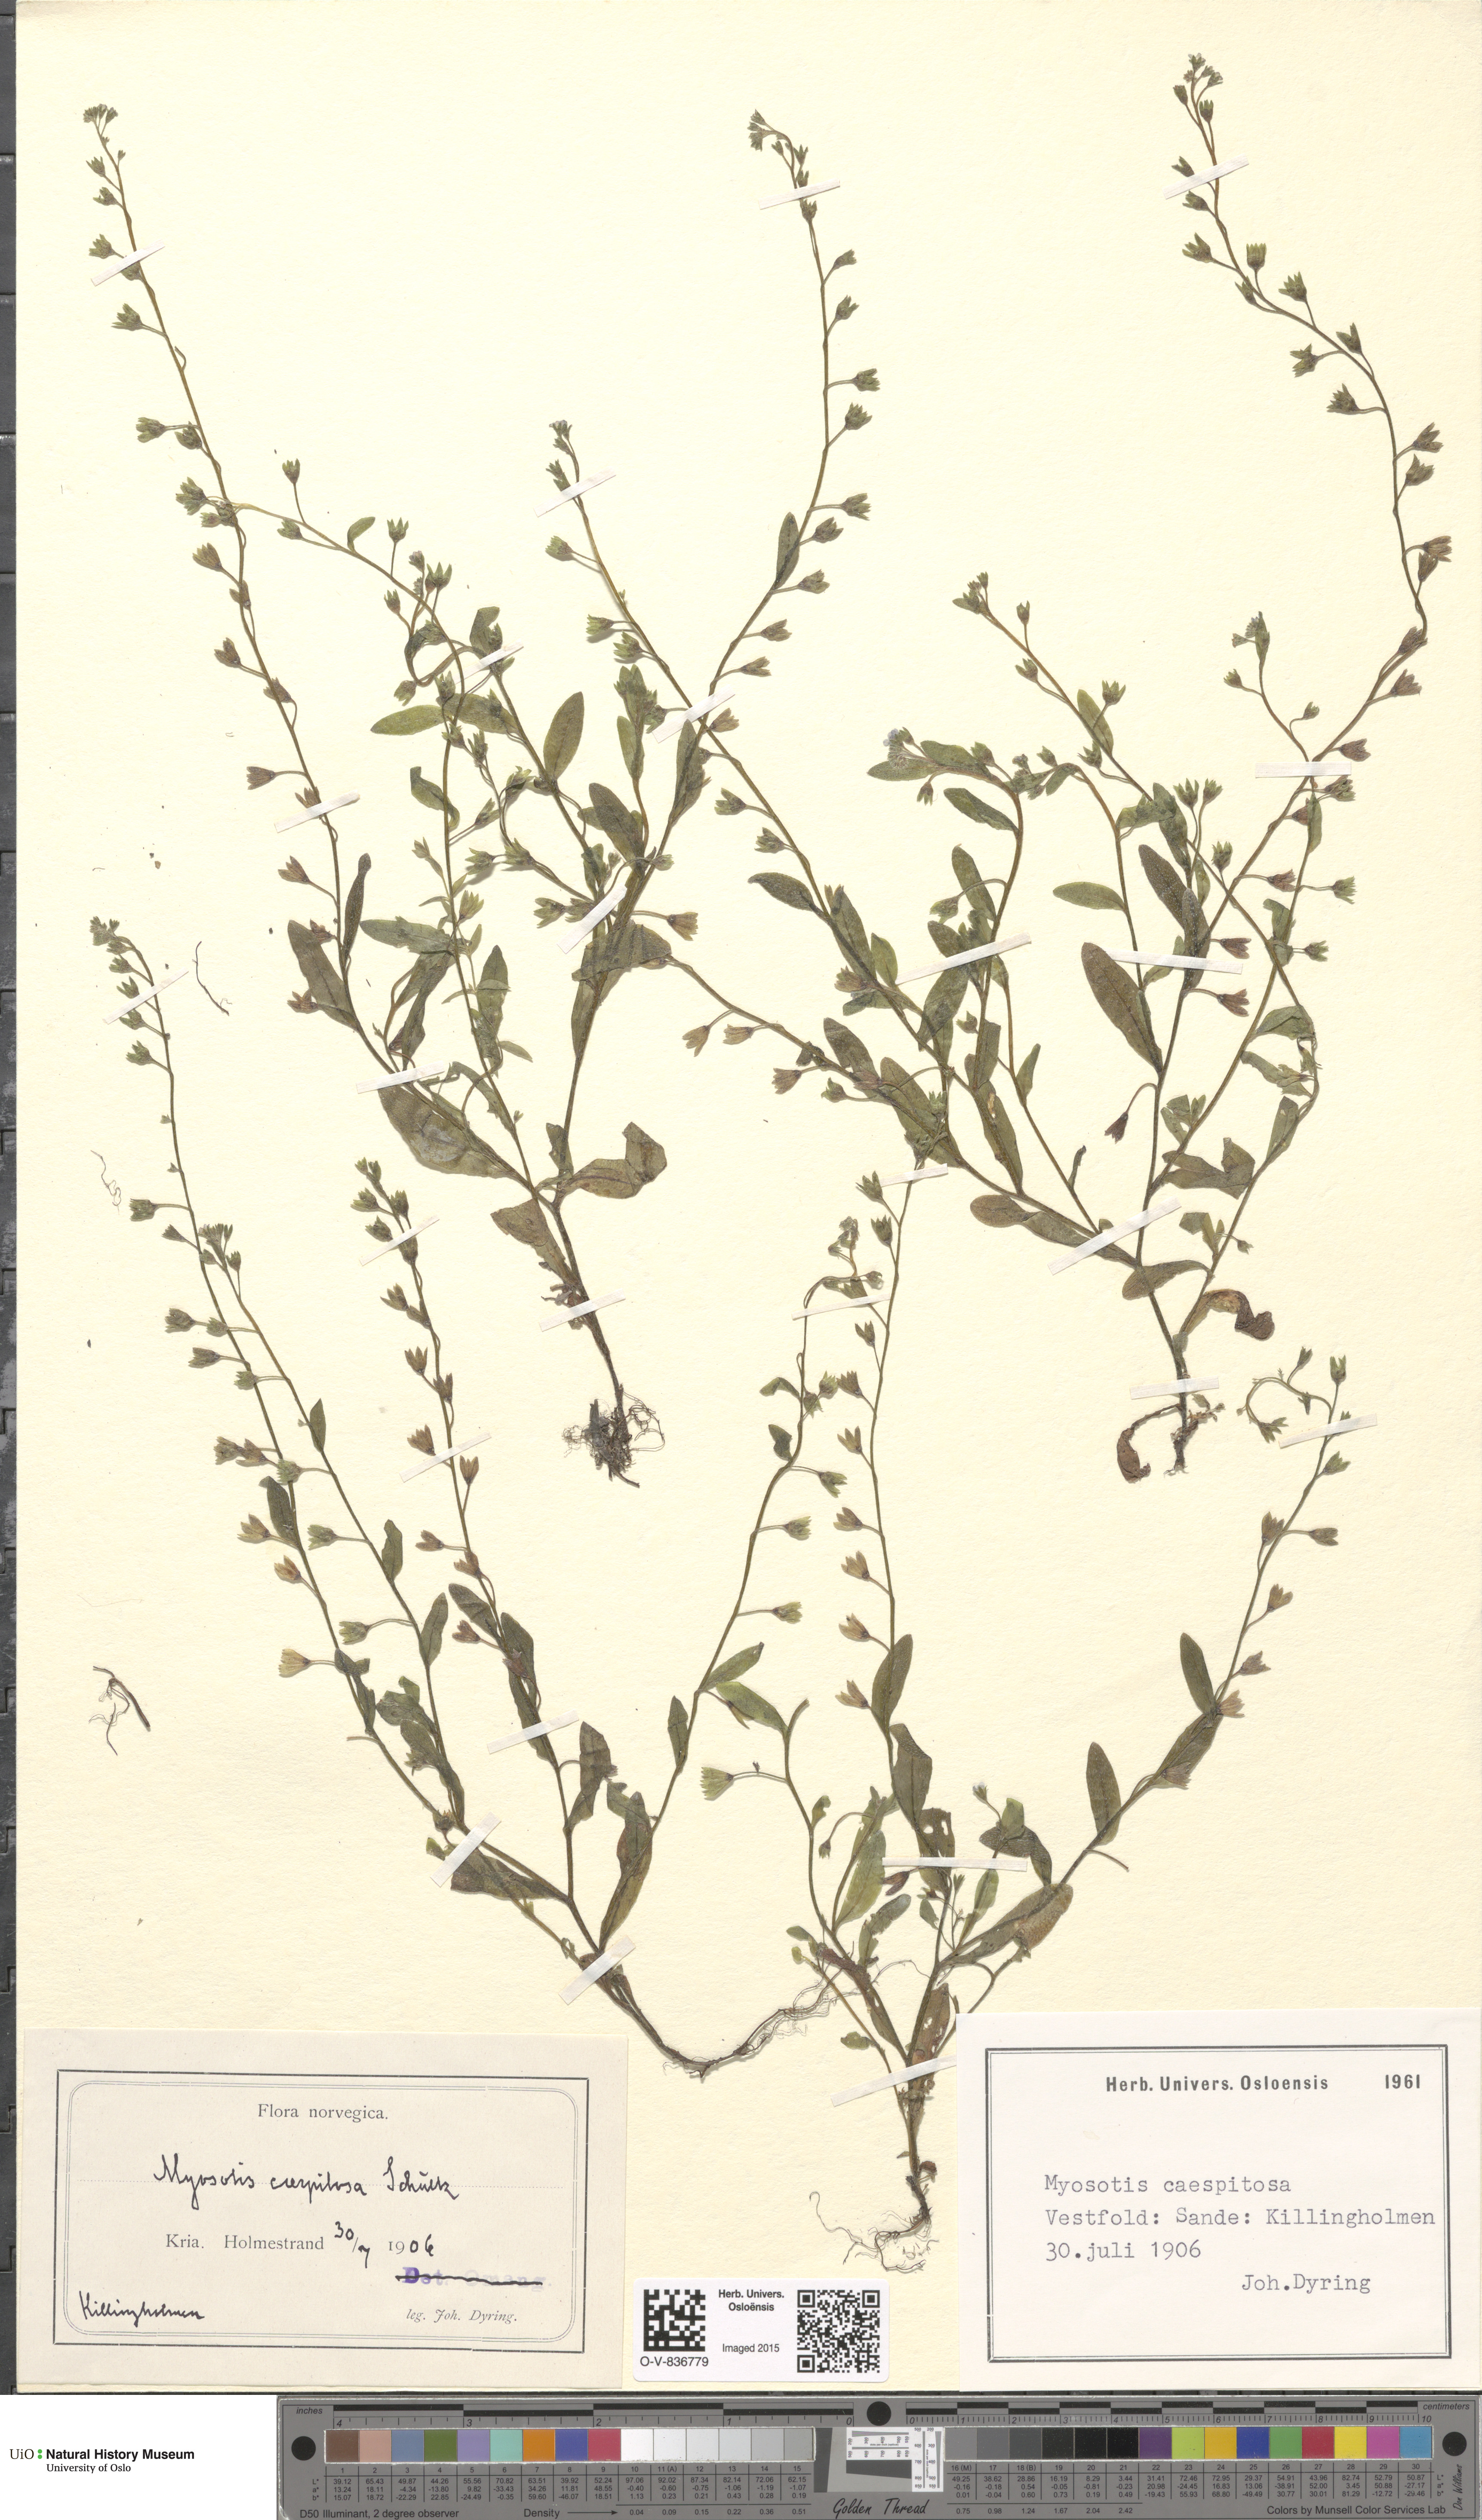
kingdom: Plantae
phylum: Tracheophyta
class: Magnoliopsida
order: Boraginales
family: Boraginaceae
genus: Myosotis
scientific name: Myosotis laxa
